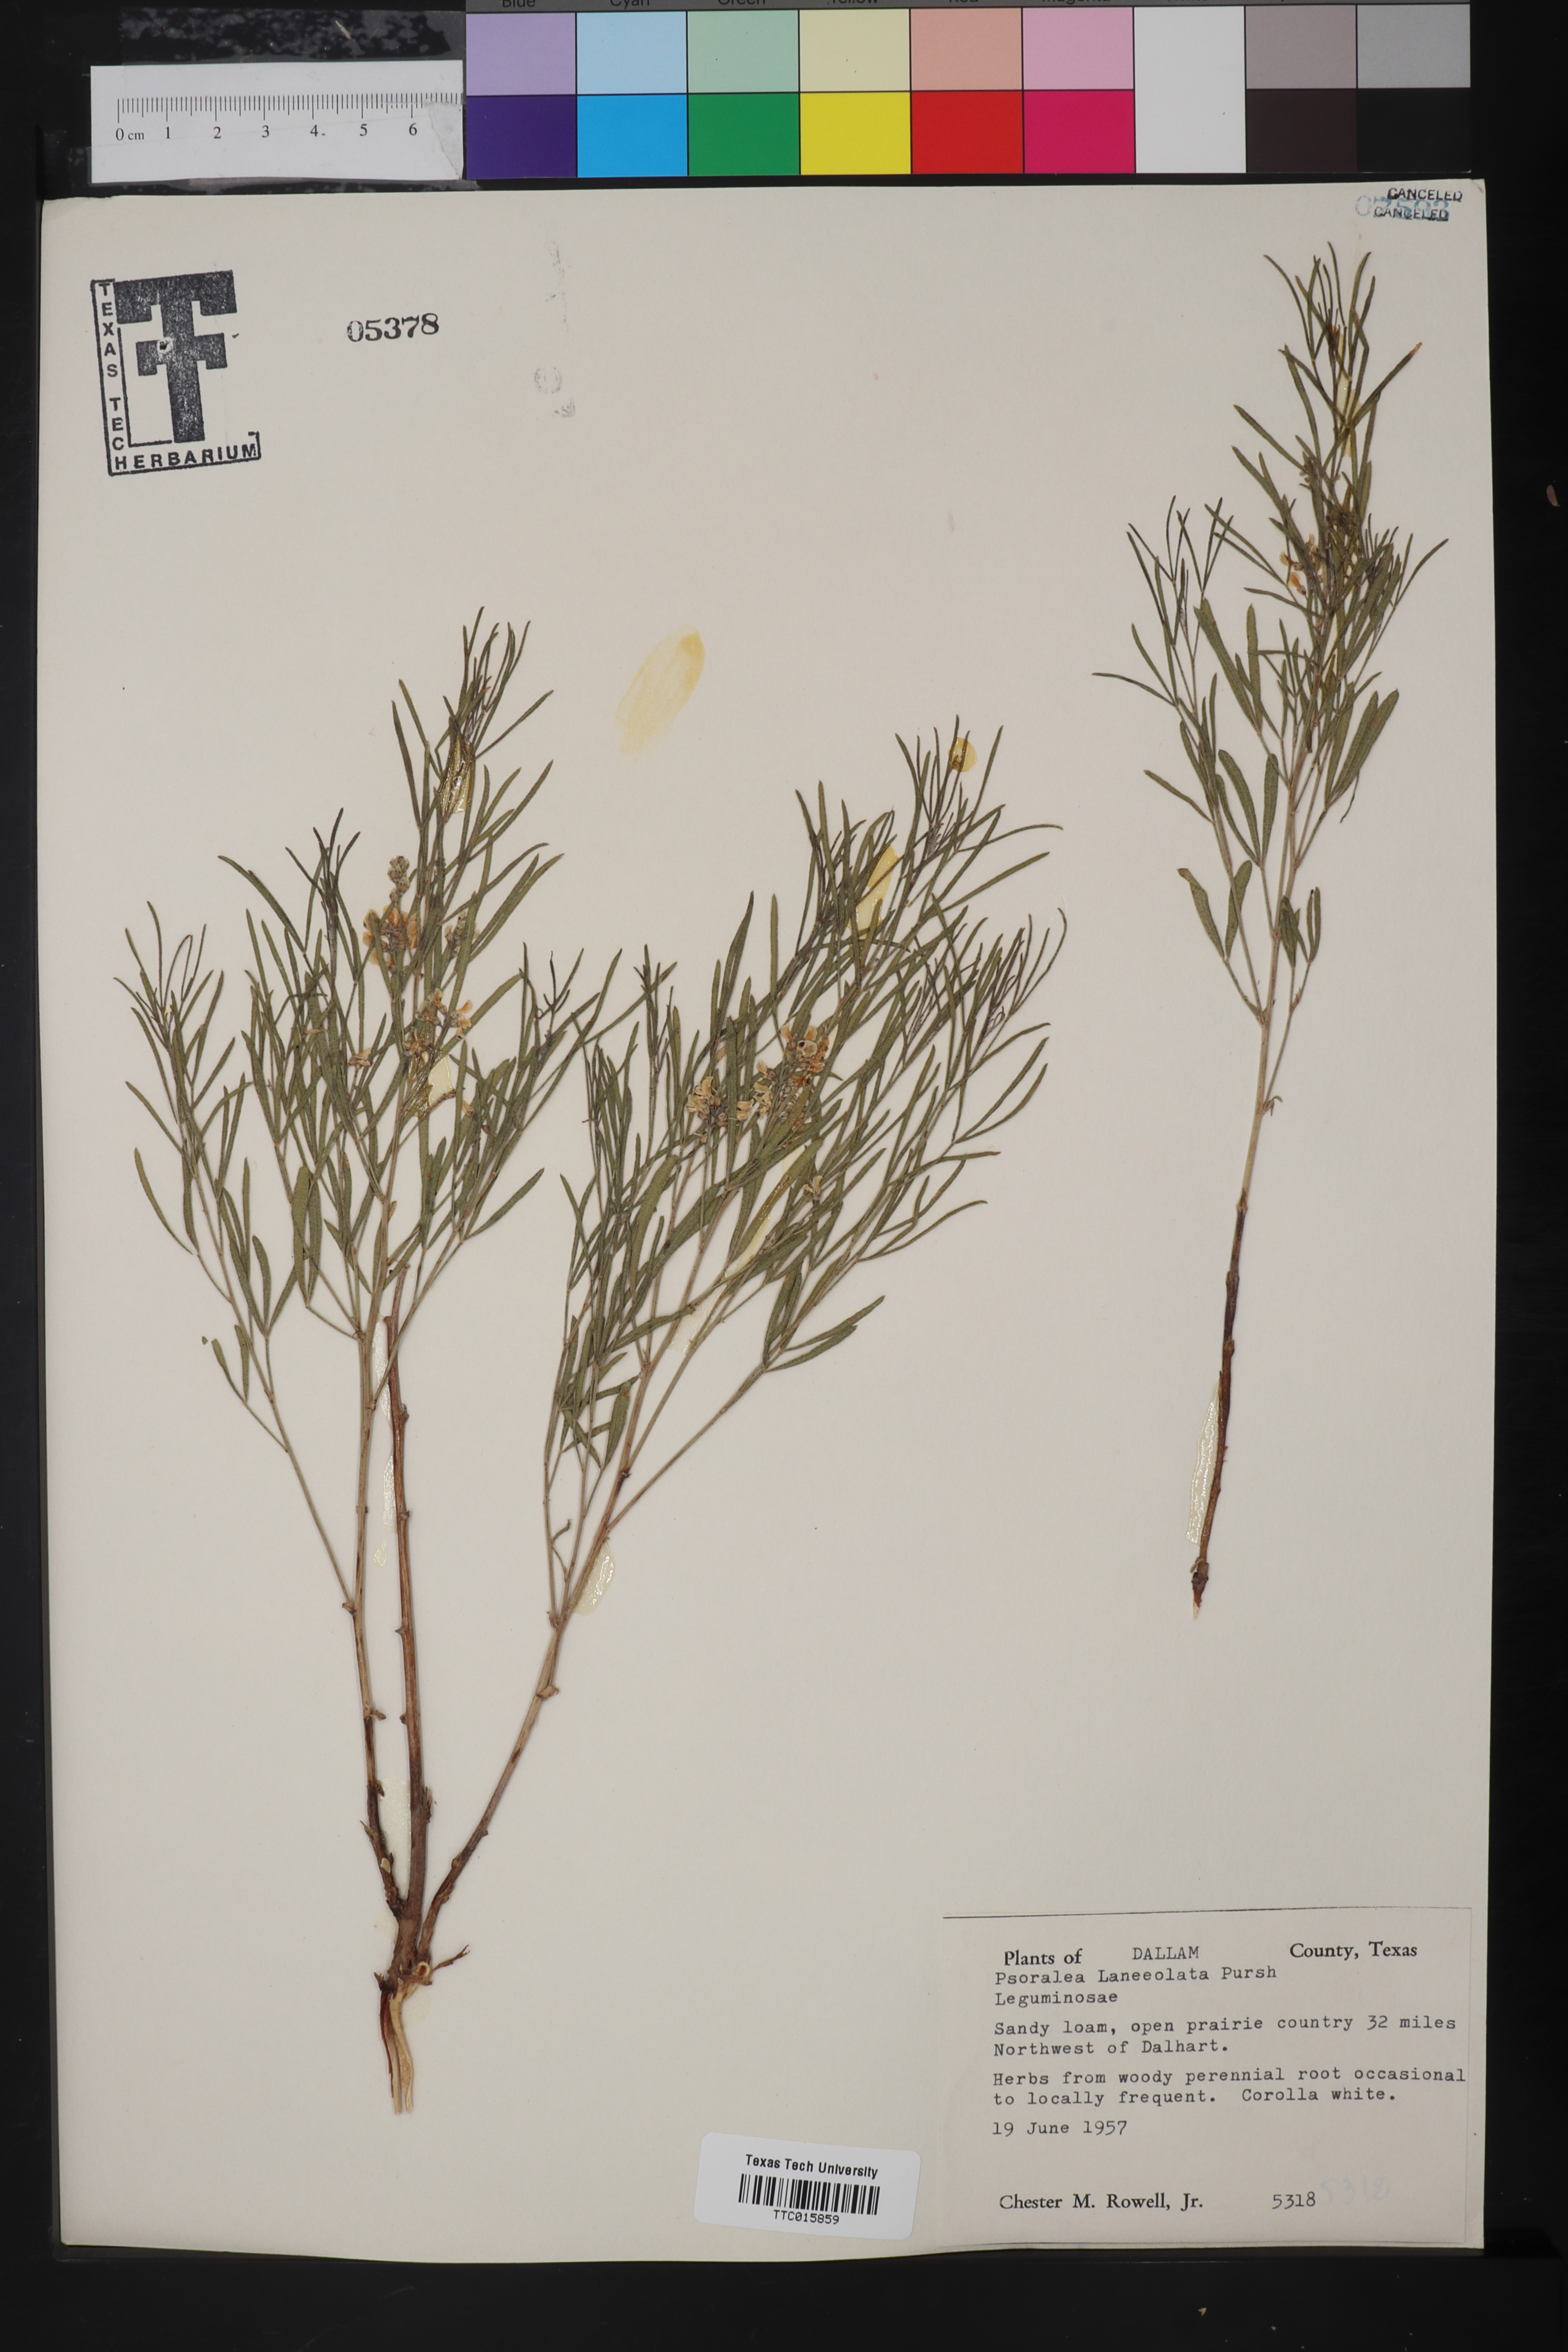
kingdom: Plantae
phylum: Tracheophyta
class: Magnoliopsida
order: Fabales
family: Fabaceae
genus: Ladeania
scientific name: Ladeania lanceolata
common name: Dune scurf-pea
